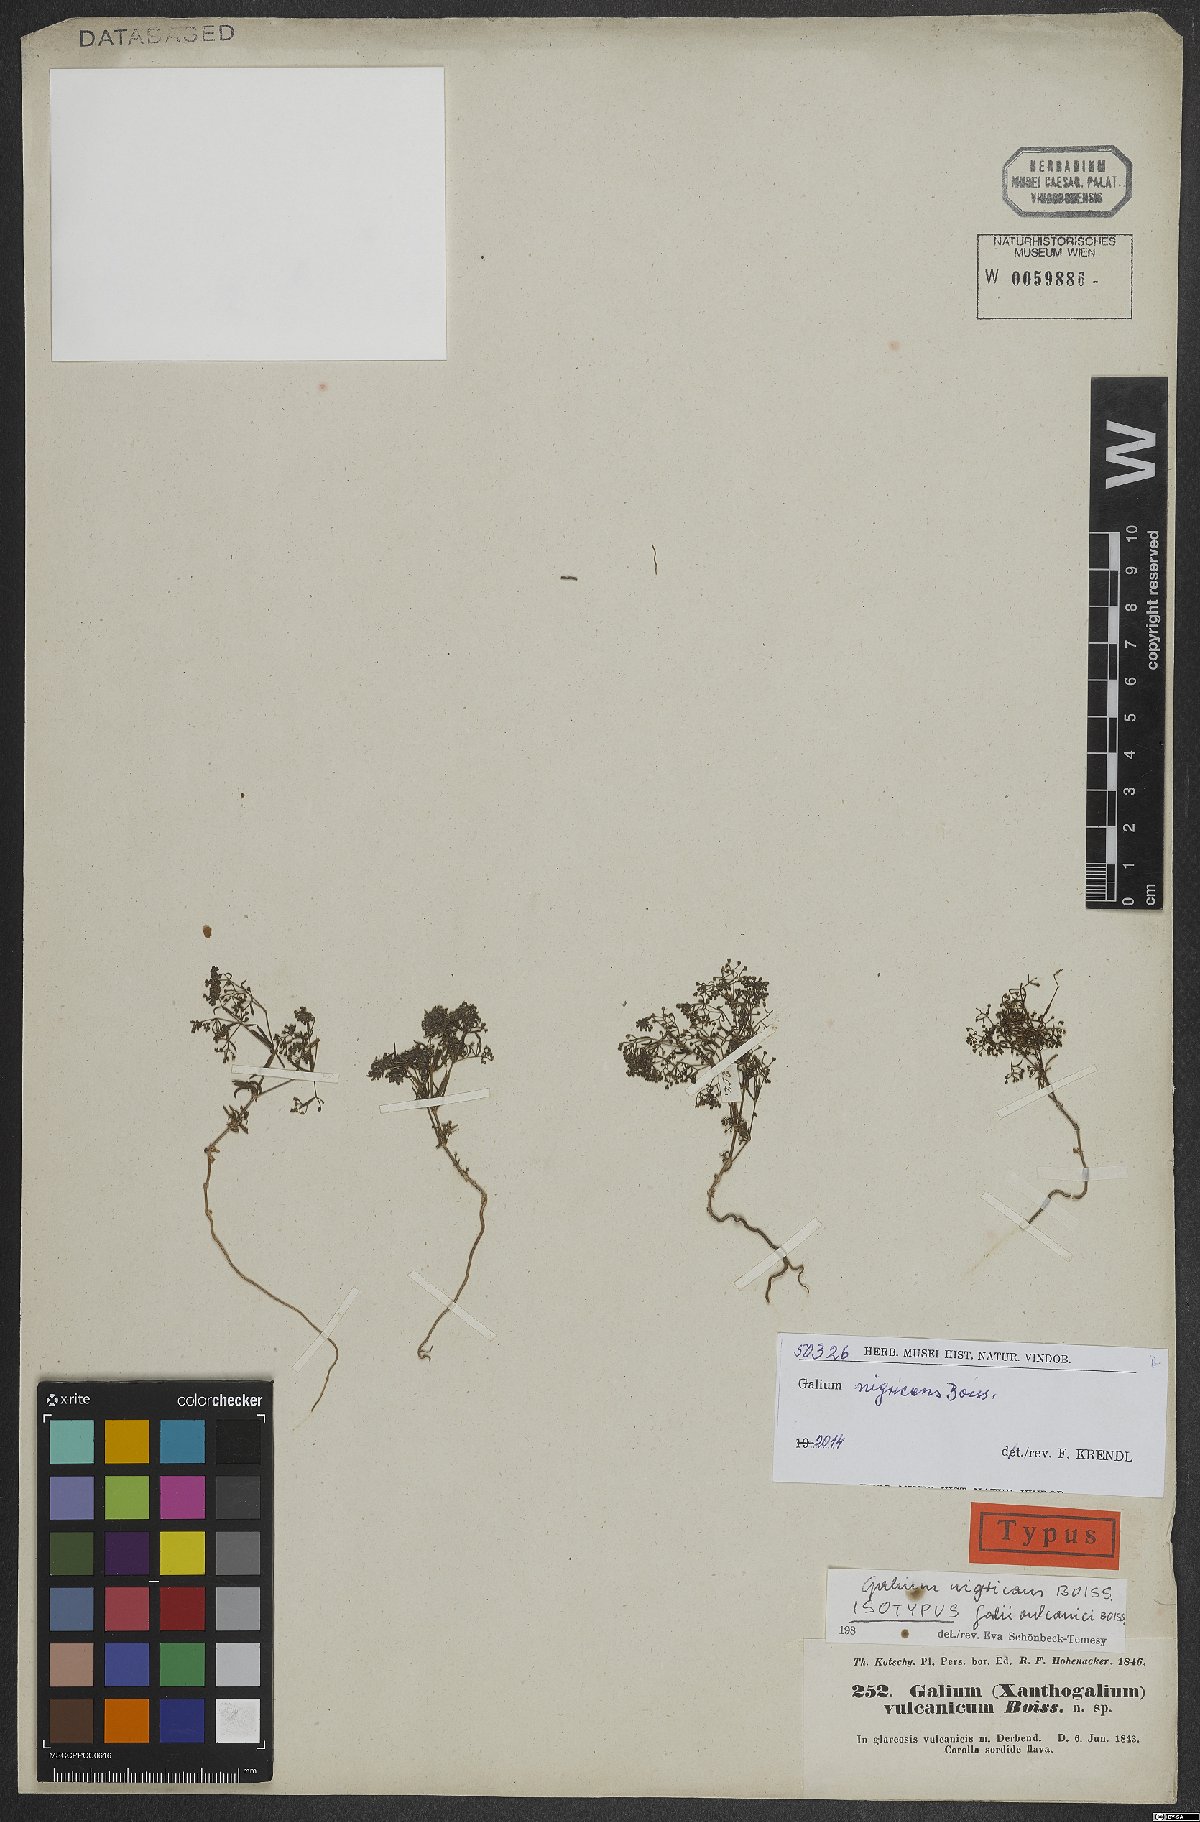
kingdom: Plantae
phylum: Tracheophyta
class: Magnoliopsida
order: Gentianales
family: Rubiaceae
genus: Galium
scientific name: Galium nigricans
